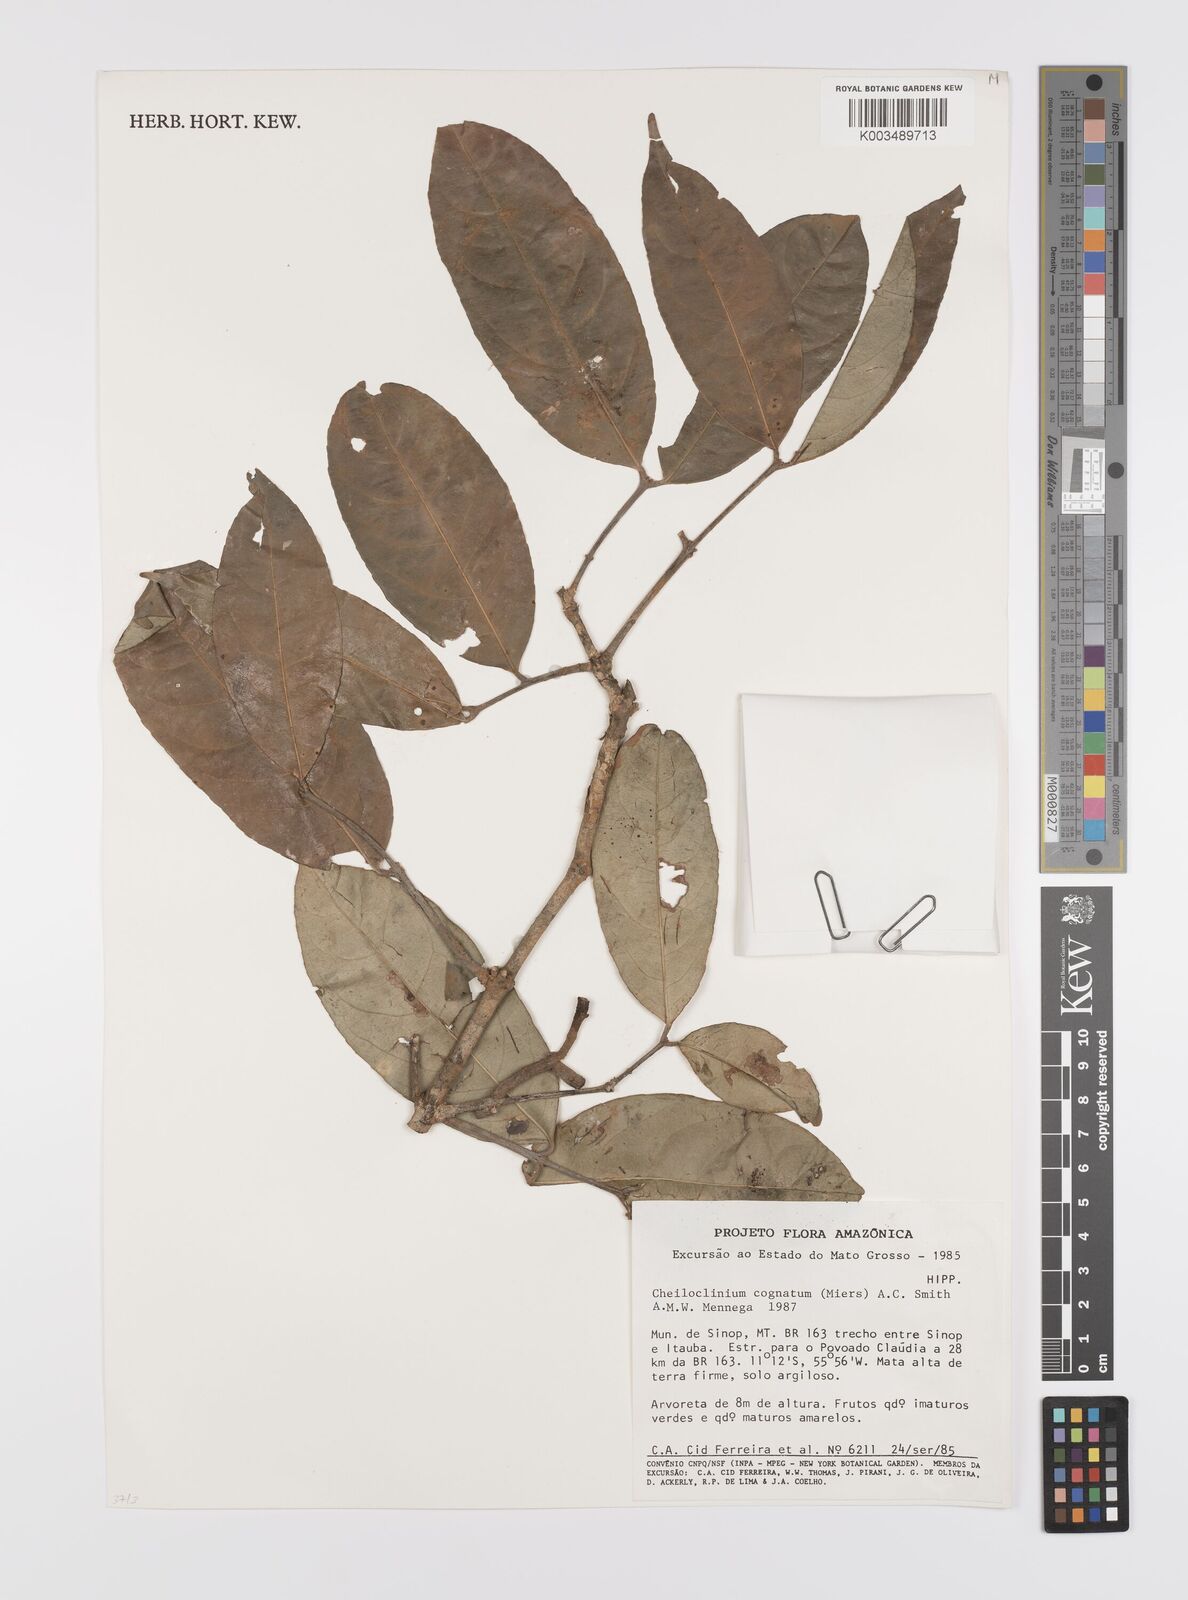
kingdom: Plantae
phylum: Tracheophyta
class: Magnoliopsida
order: Celastrales
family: Celastraceae
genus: Cheiloclinium
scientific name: Cheiloclinium cognatum
